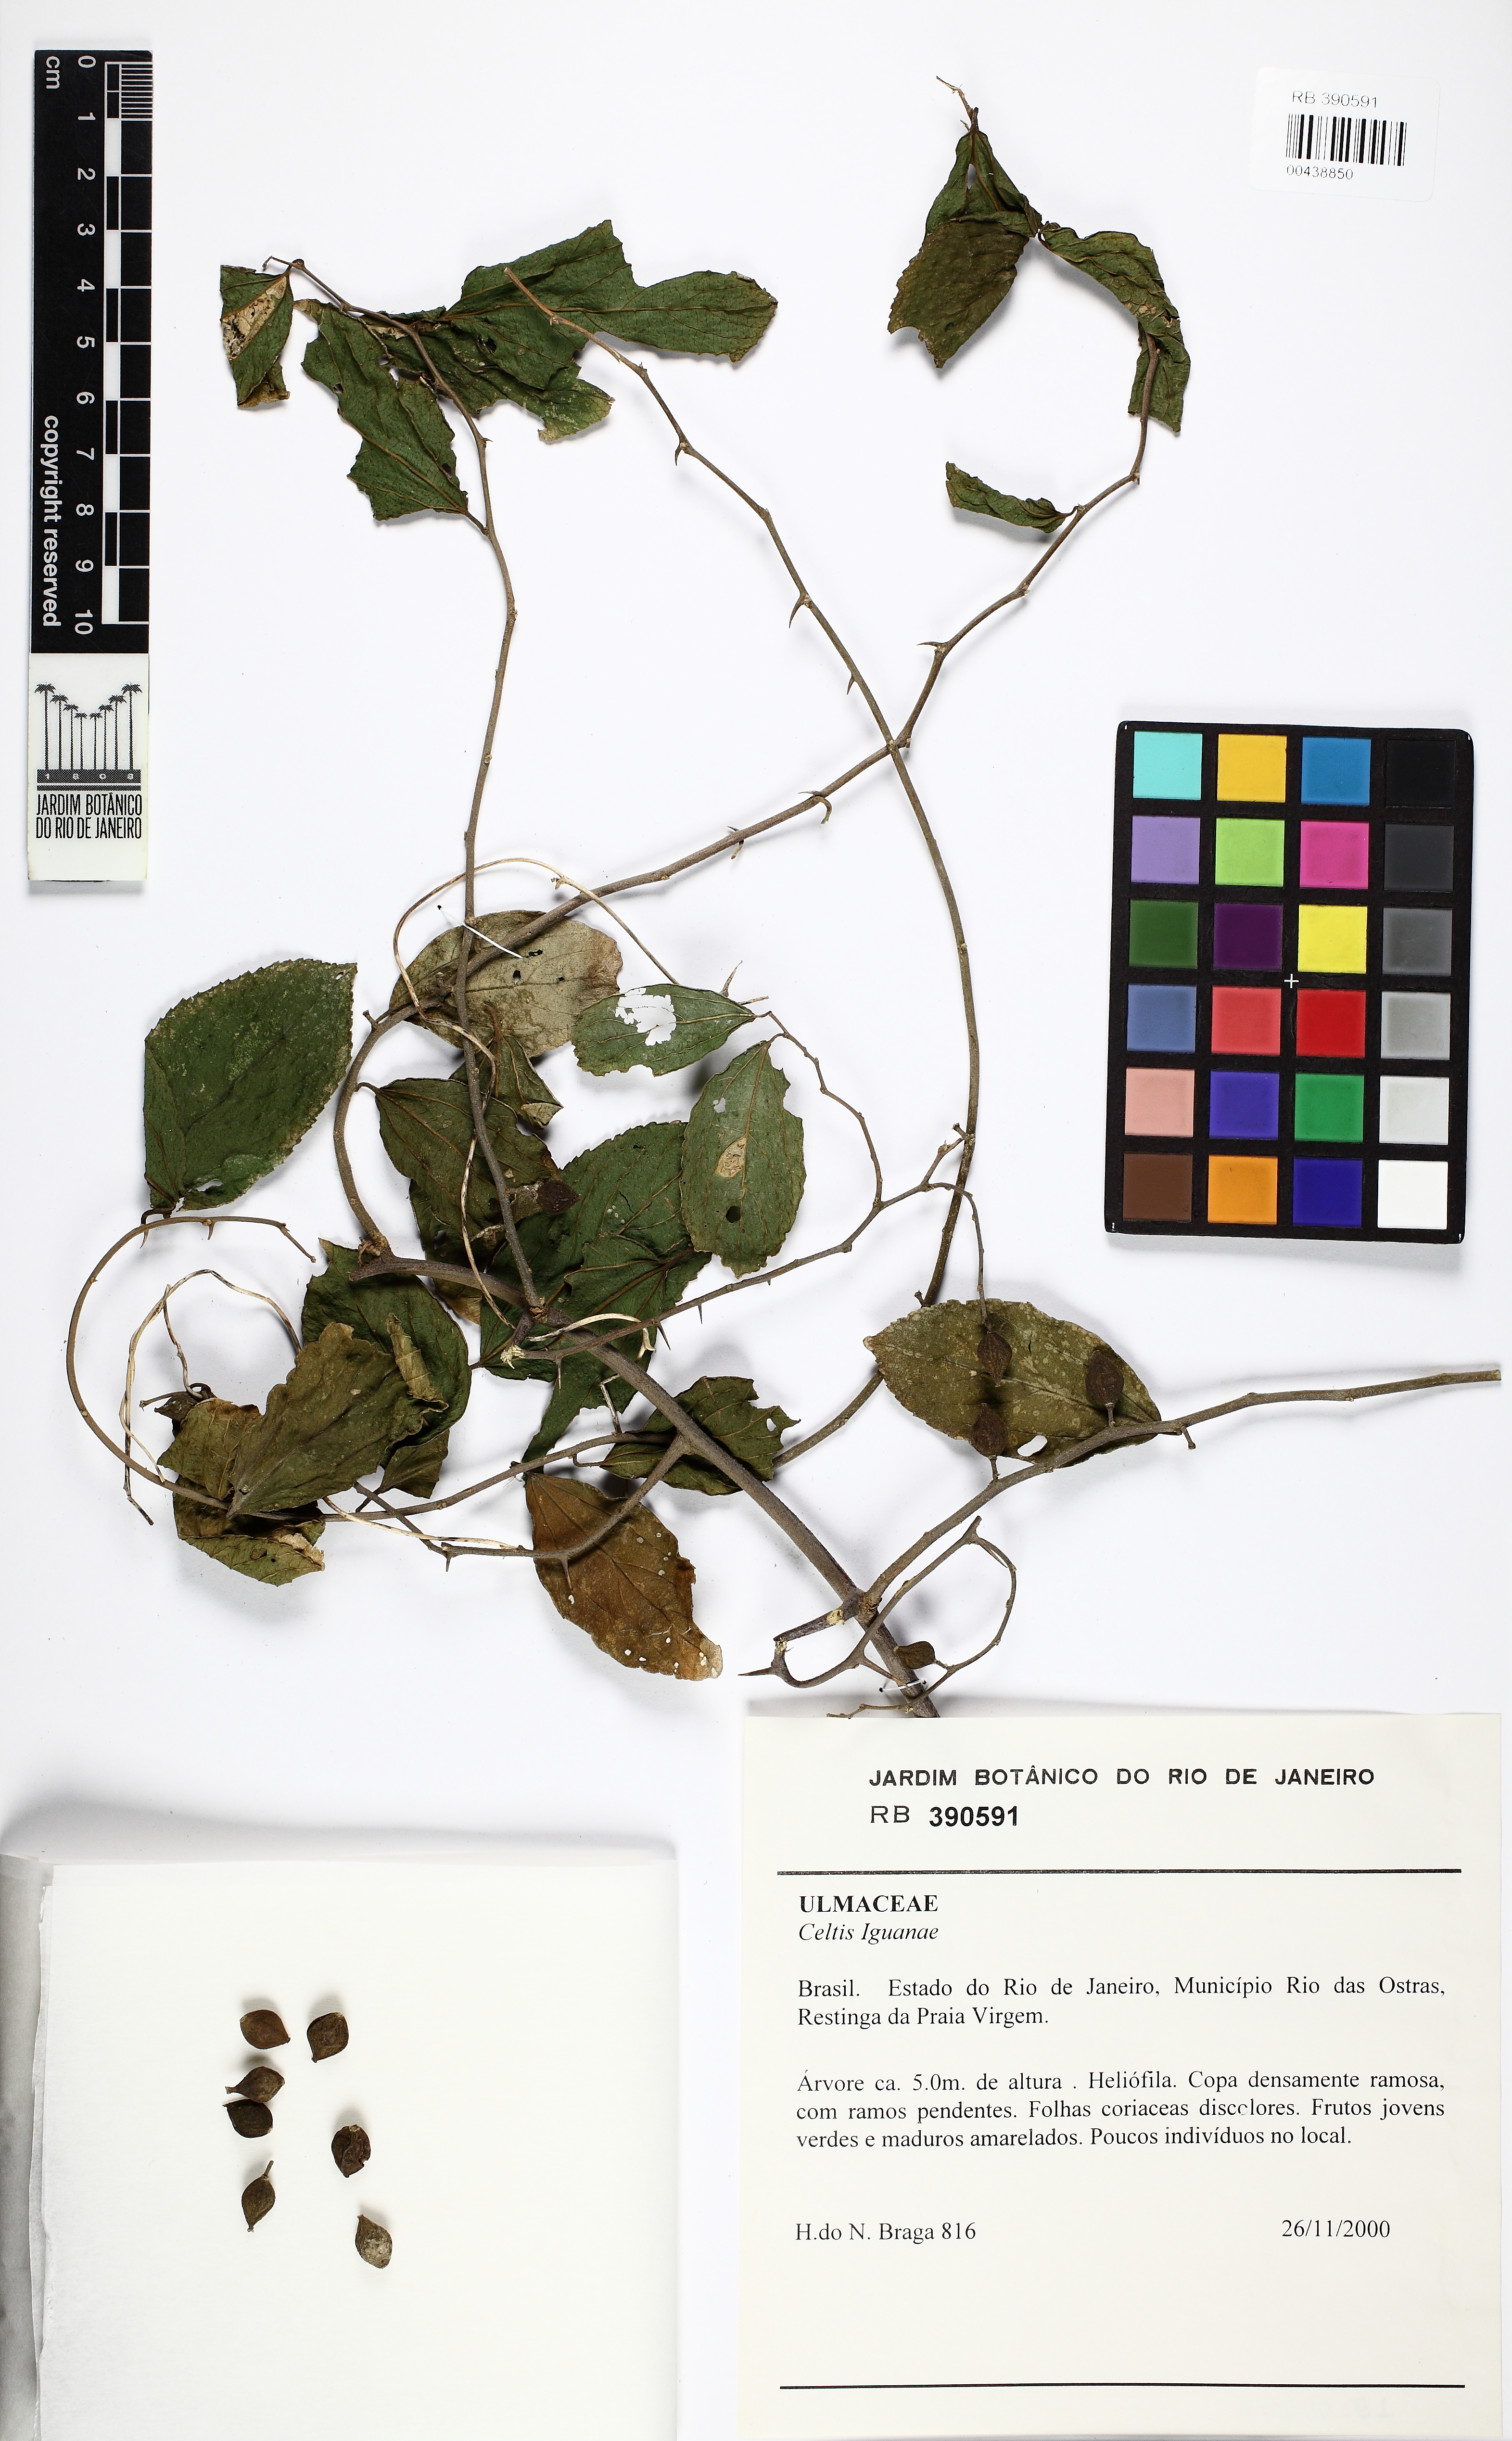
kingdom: Plantae
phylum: Tracheophyta
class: Magnoliopsida
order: Rosales
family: Cannabaceae
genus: Celtis
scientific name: Celtis iguanaea
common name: Iguana hackberry
